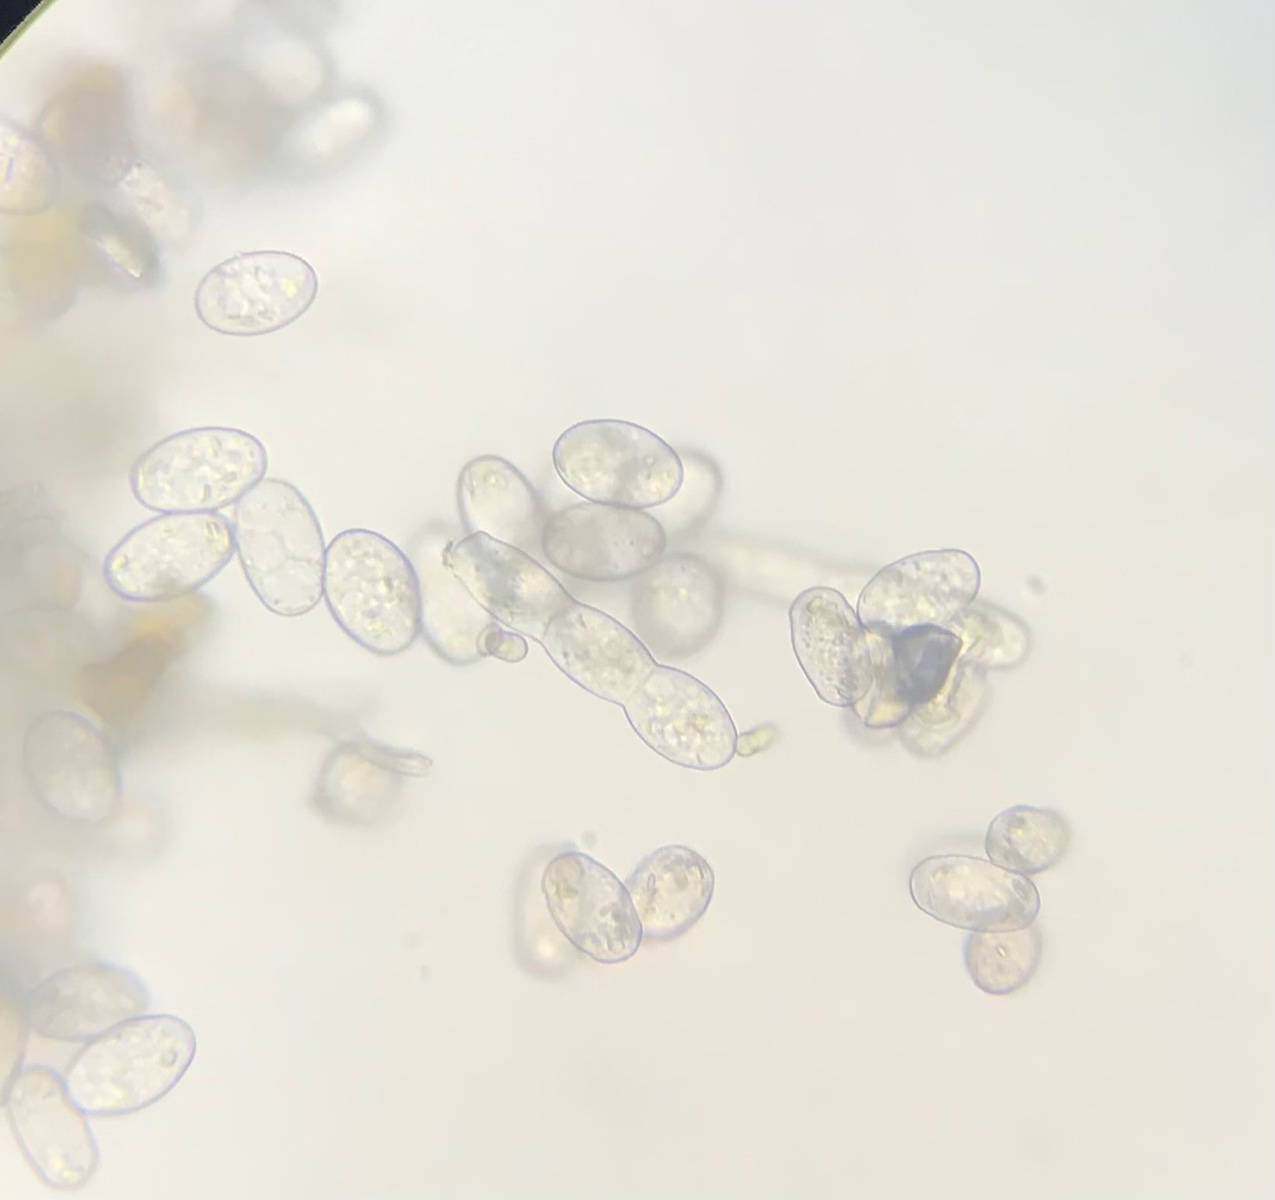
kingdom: Fungi
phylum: Ascomycota
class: Leotiomycetes
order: Helotiales
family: Erysiphaceae
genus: Podosphaera
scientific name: Podosphaera erigerontis-canadensis
